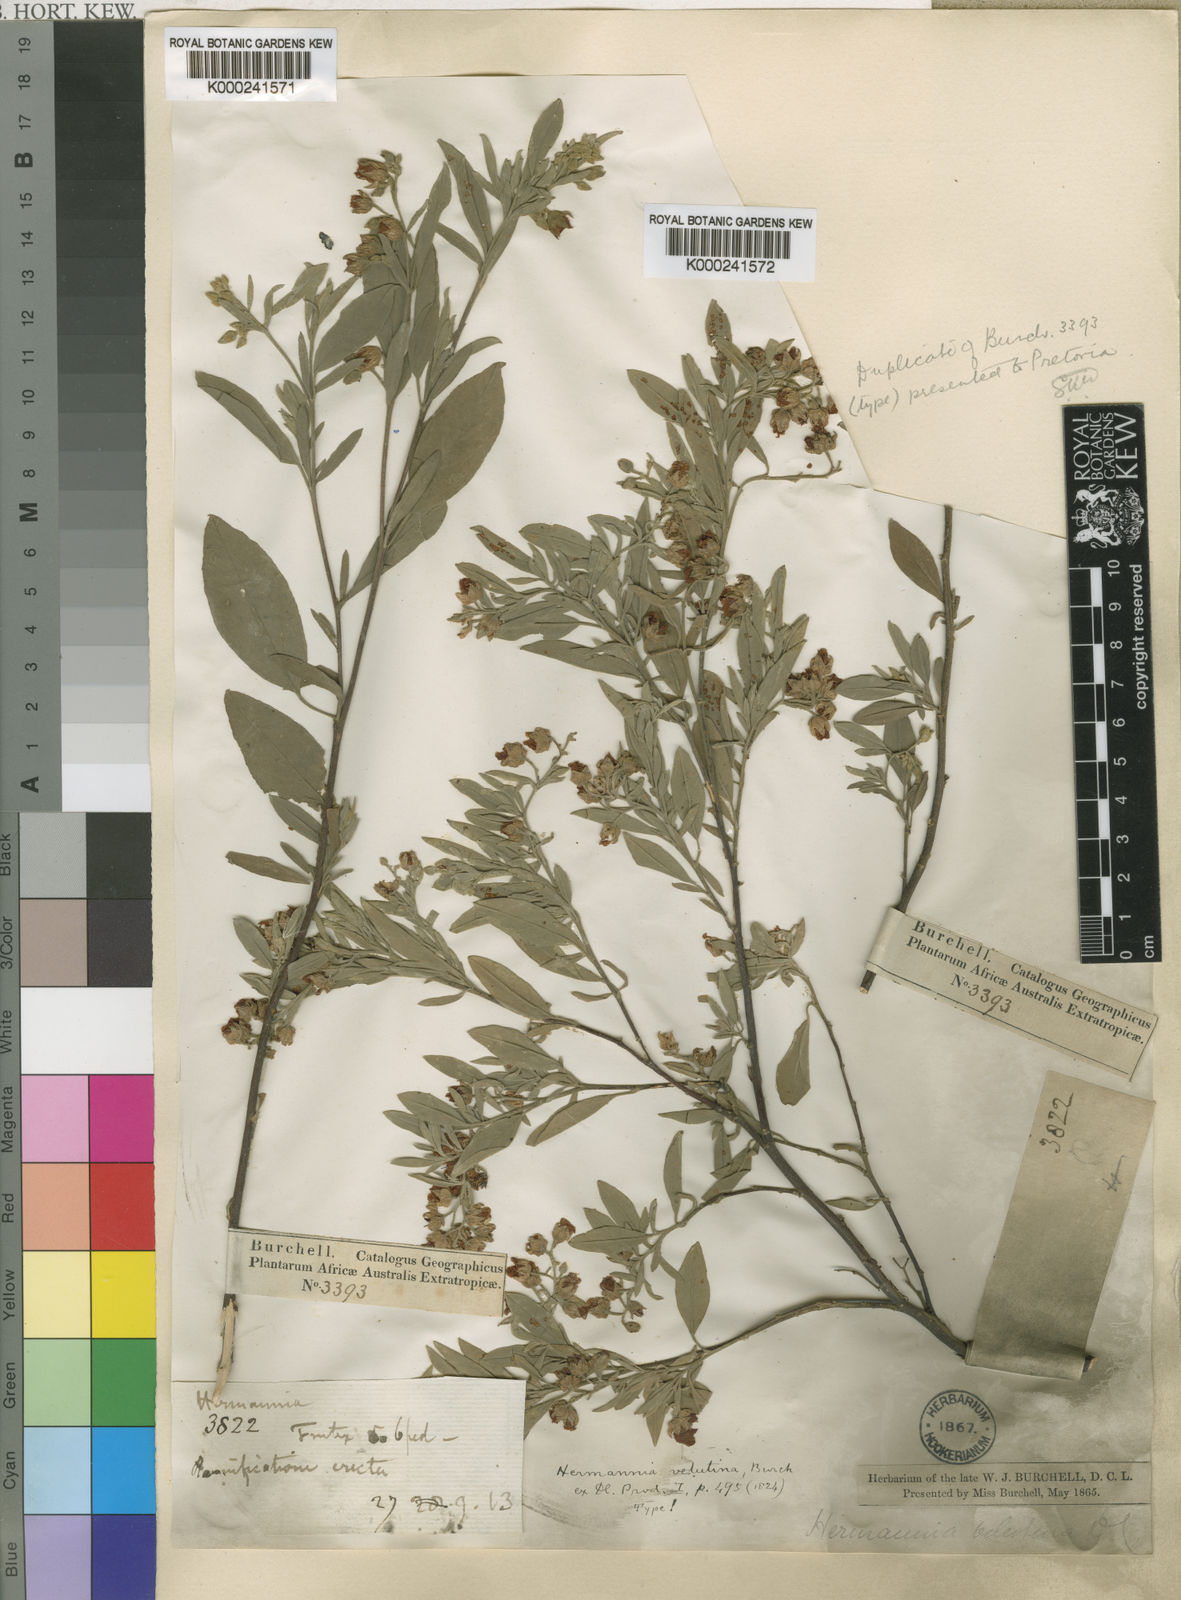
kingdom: Plantae
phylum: Tracheophyta
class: Magnoliopsida
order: Malvales
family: Malvaceae
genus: Hermannia
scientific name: Hermannia velutina
